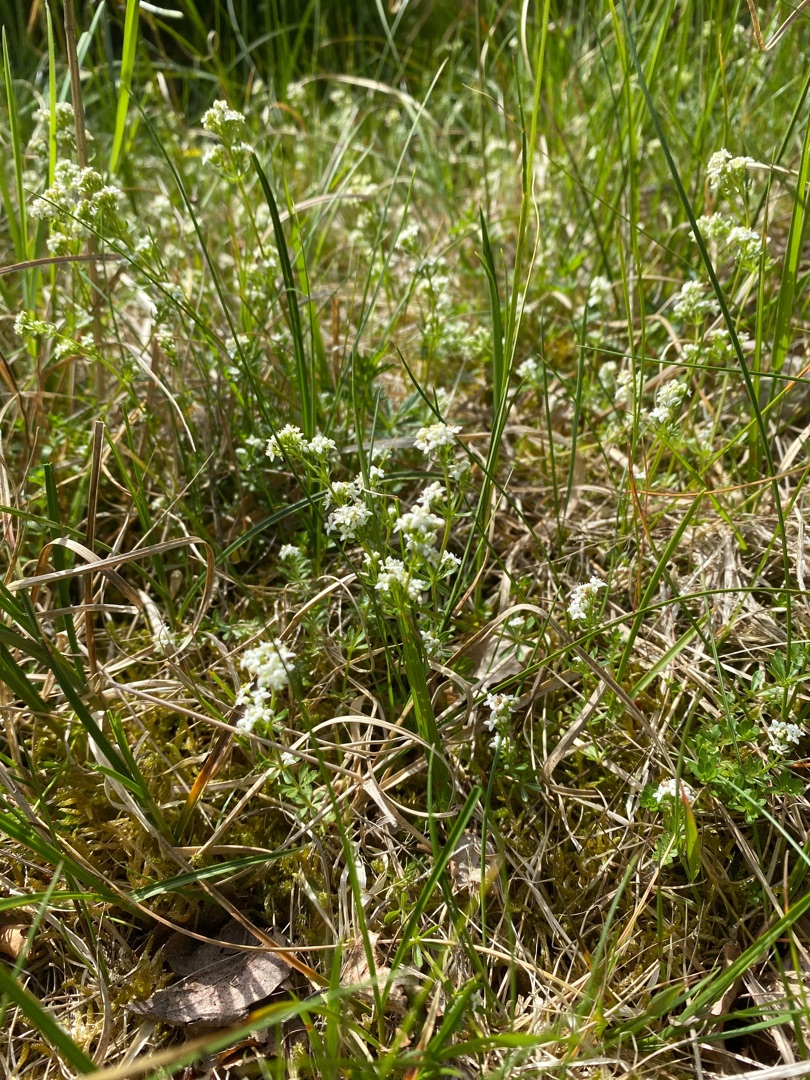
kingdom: Plantae
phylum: Tracheophyta
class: Magnoliopsida
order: Gentianales
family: Rubiaceae
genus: Galium
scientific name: Galium saxatile
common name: Lyng-snerre
